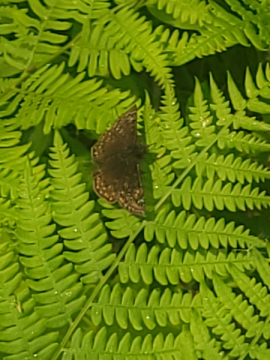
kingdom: Animalia
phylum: Arthropoda
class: Insecta
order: Lepidoptera
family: Hesperiidae
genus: Gesta
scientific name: Gesta
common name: Juvenal's Duskywing
